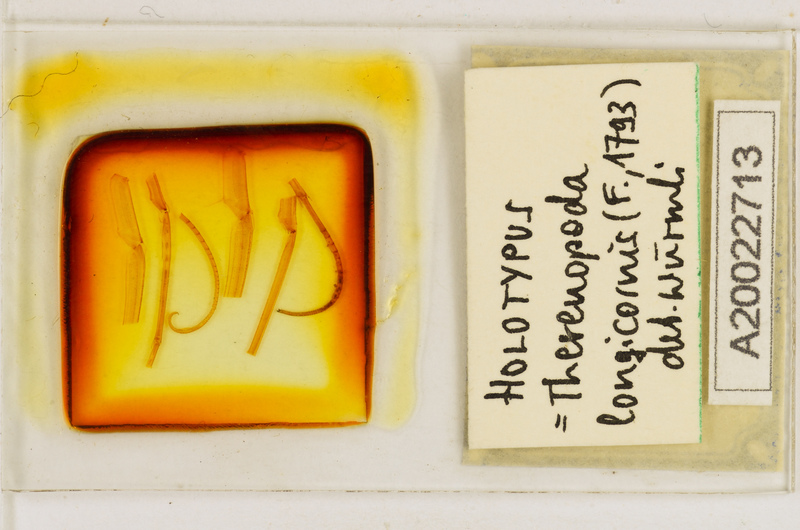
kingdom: Animalia
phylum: Arthropoda
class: Chilopoda
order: Scutigeromorpha
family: Scutigeridae
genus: Thereuopoda
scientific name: Thereuopoda longicornis
